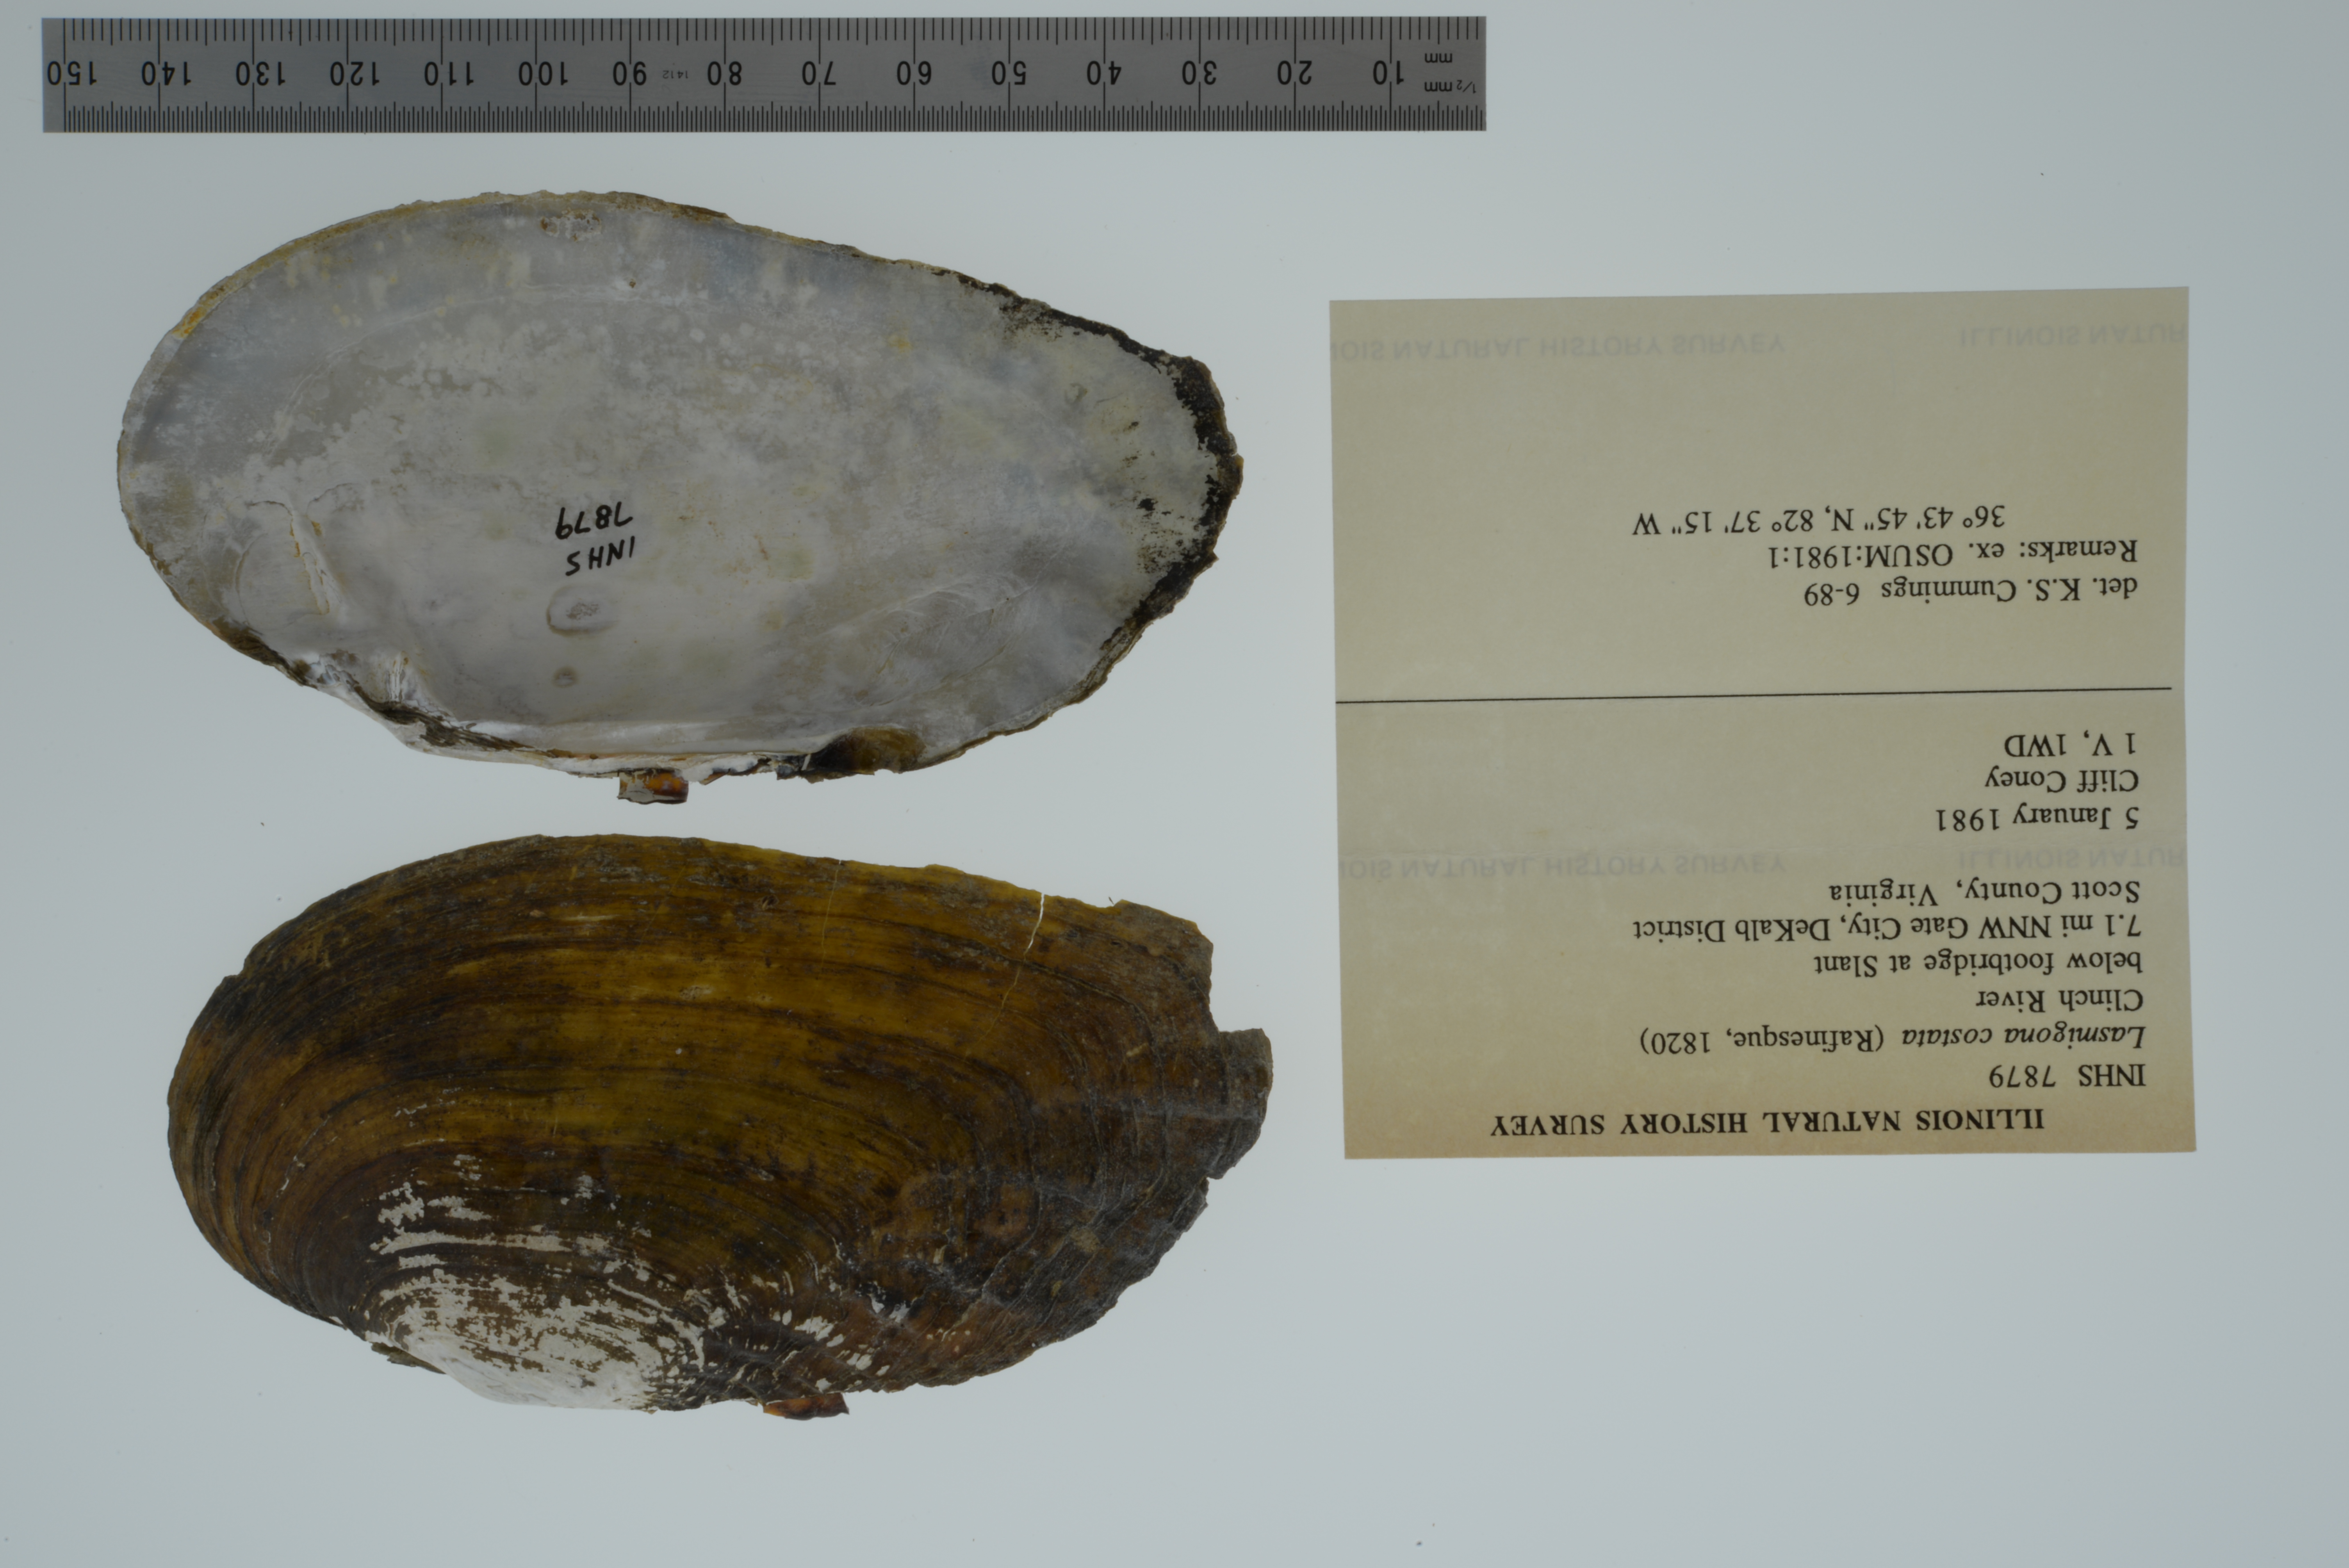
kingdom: Animalia
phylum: Mollusca
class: Bivalvia
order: Unionida
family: Unionidae
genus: Lasmigona
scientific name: Lasmigona costata
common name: Flutedshell
